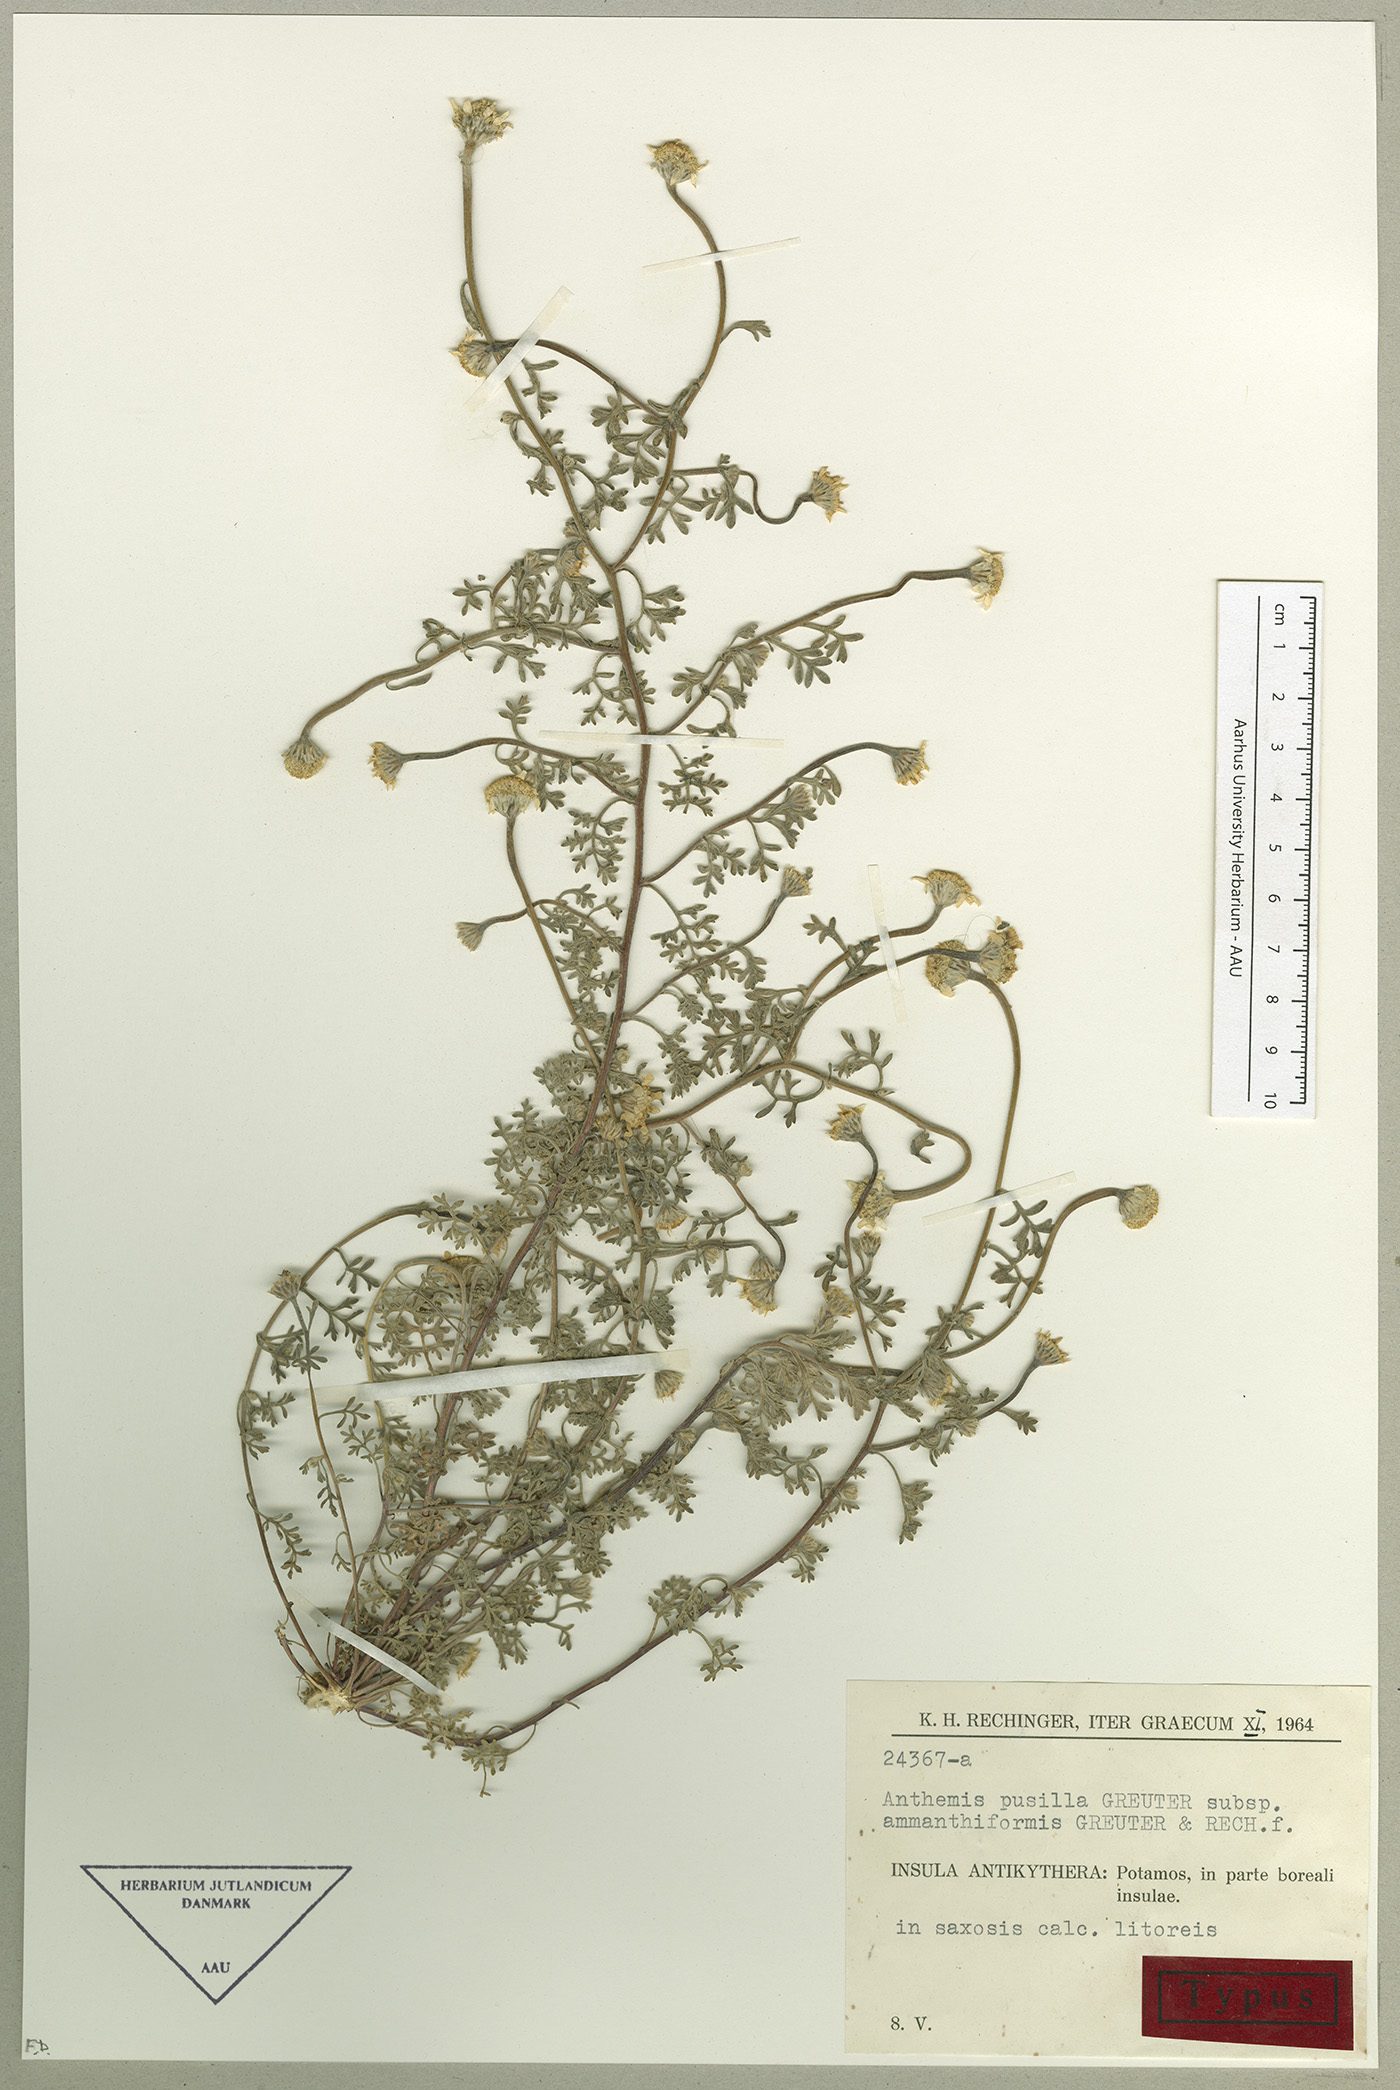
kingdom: Plantae
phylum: Tracheophyta
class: Magnoliopsida
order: Asterales
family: Asteraceae
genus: Anthemis
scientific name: Anthemis rigida
